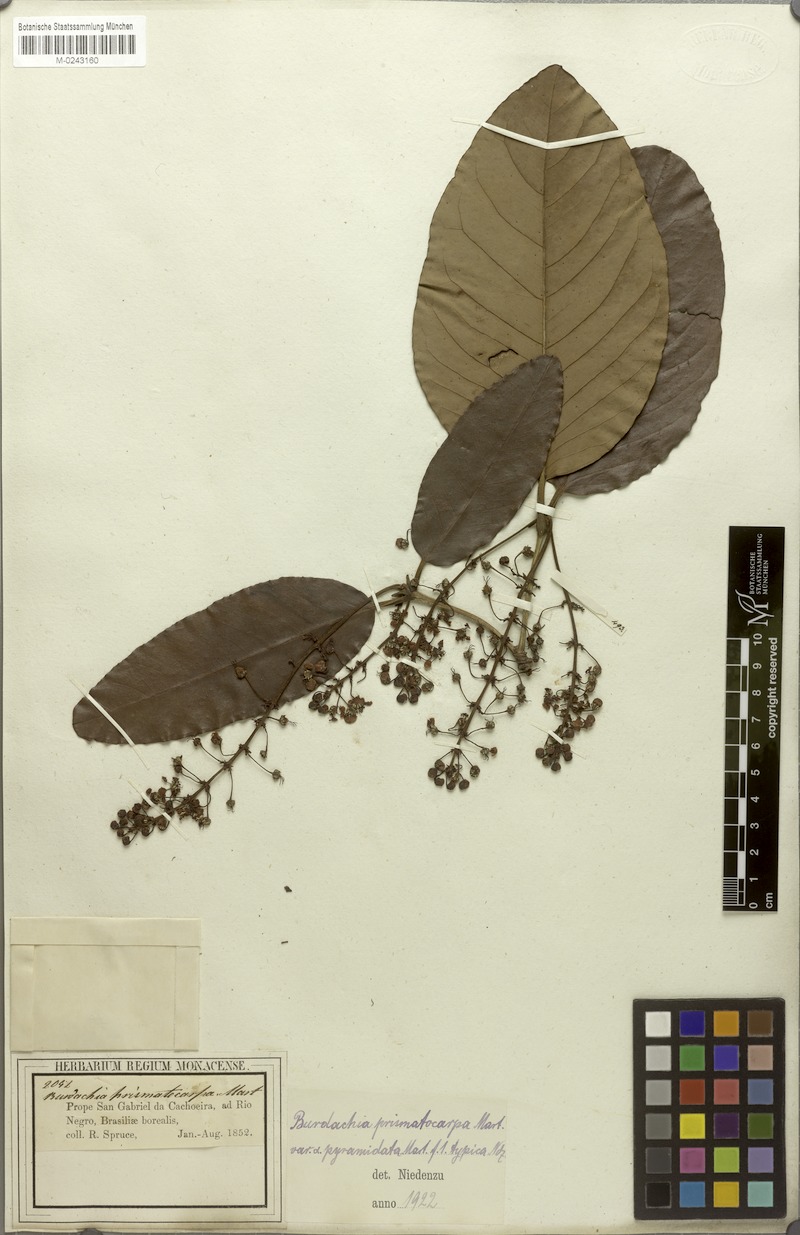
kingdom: Plantae
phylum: Tracheophyta
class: Magnoliopsida
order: Malpighiales
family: Malpighiaceae
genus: Burdachia
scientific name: Burdachia prismatocarpa
